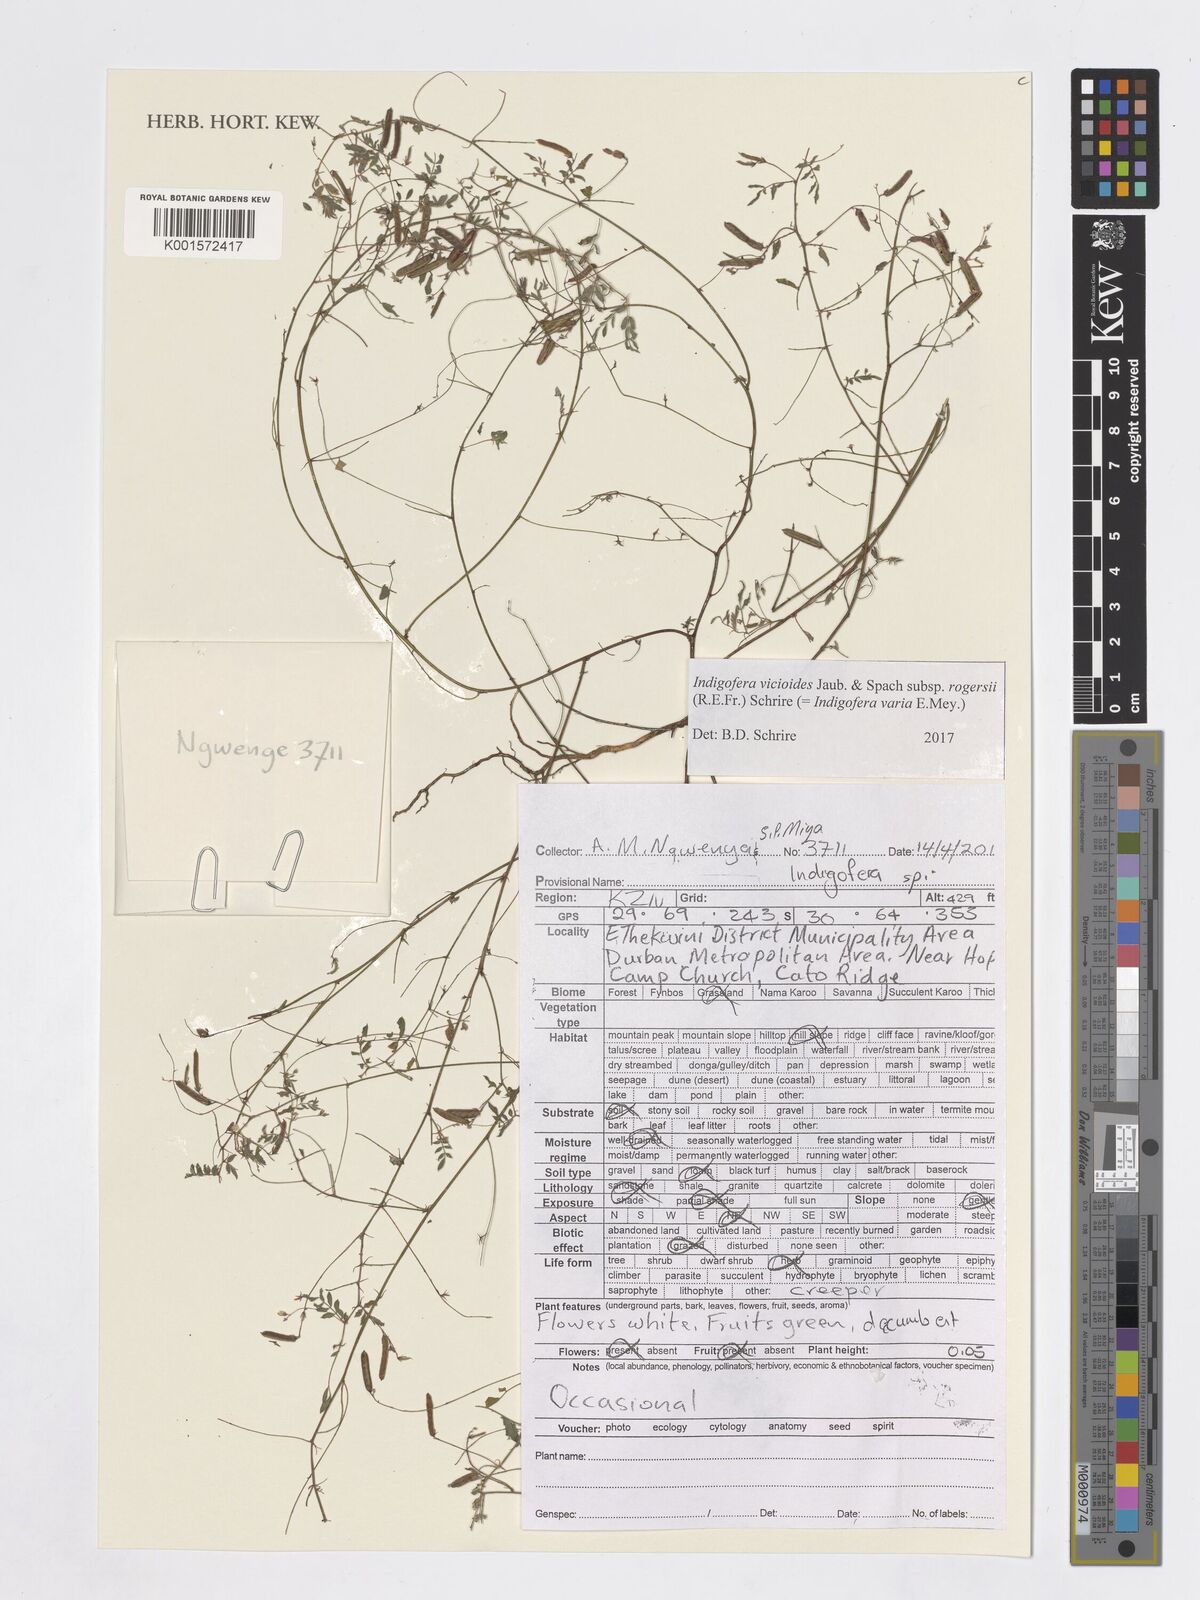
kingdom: Plantae
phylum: Tracheophyta
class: Magnoliopsida
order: Fabales
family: Fabaceae
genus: Indigofera
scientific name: Indigofera vicioides
